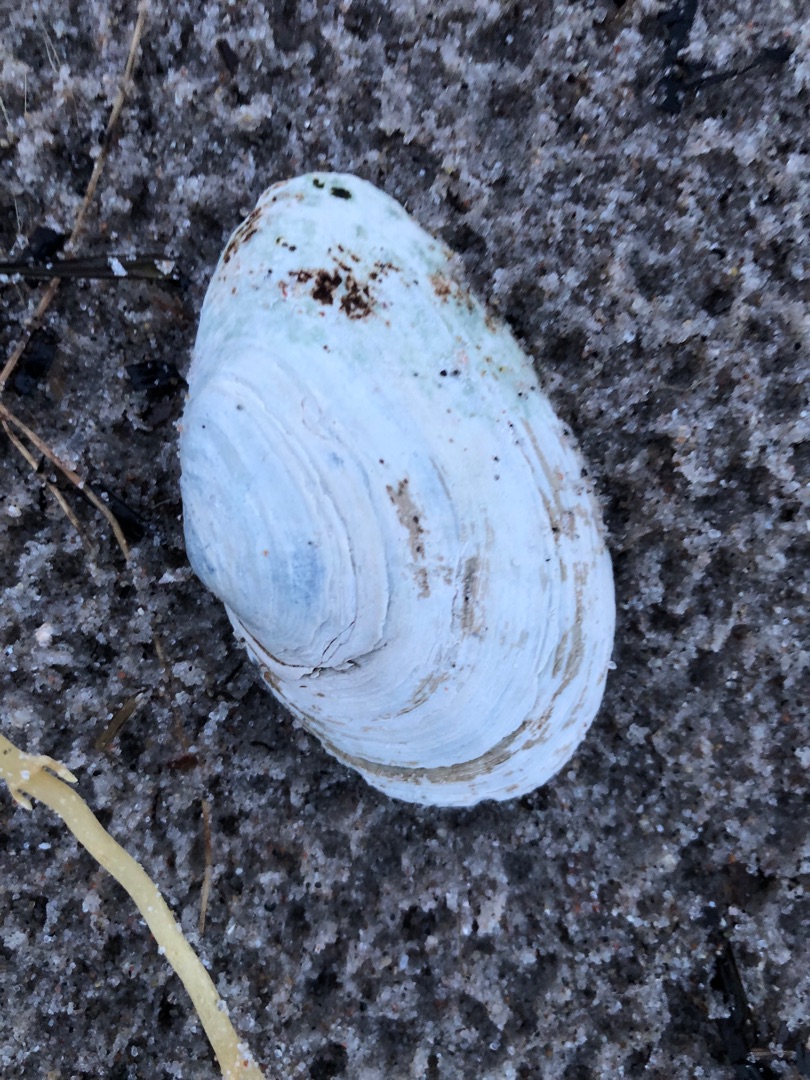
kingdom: Animalia
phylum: Mollusca
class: Bivalvia
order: Myida
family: Myidae
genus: Mya
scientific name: Mya arenaria
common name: Almindelig sandmusling
